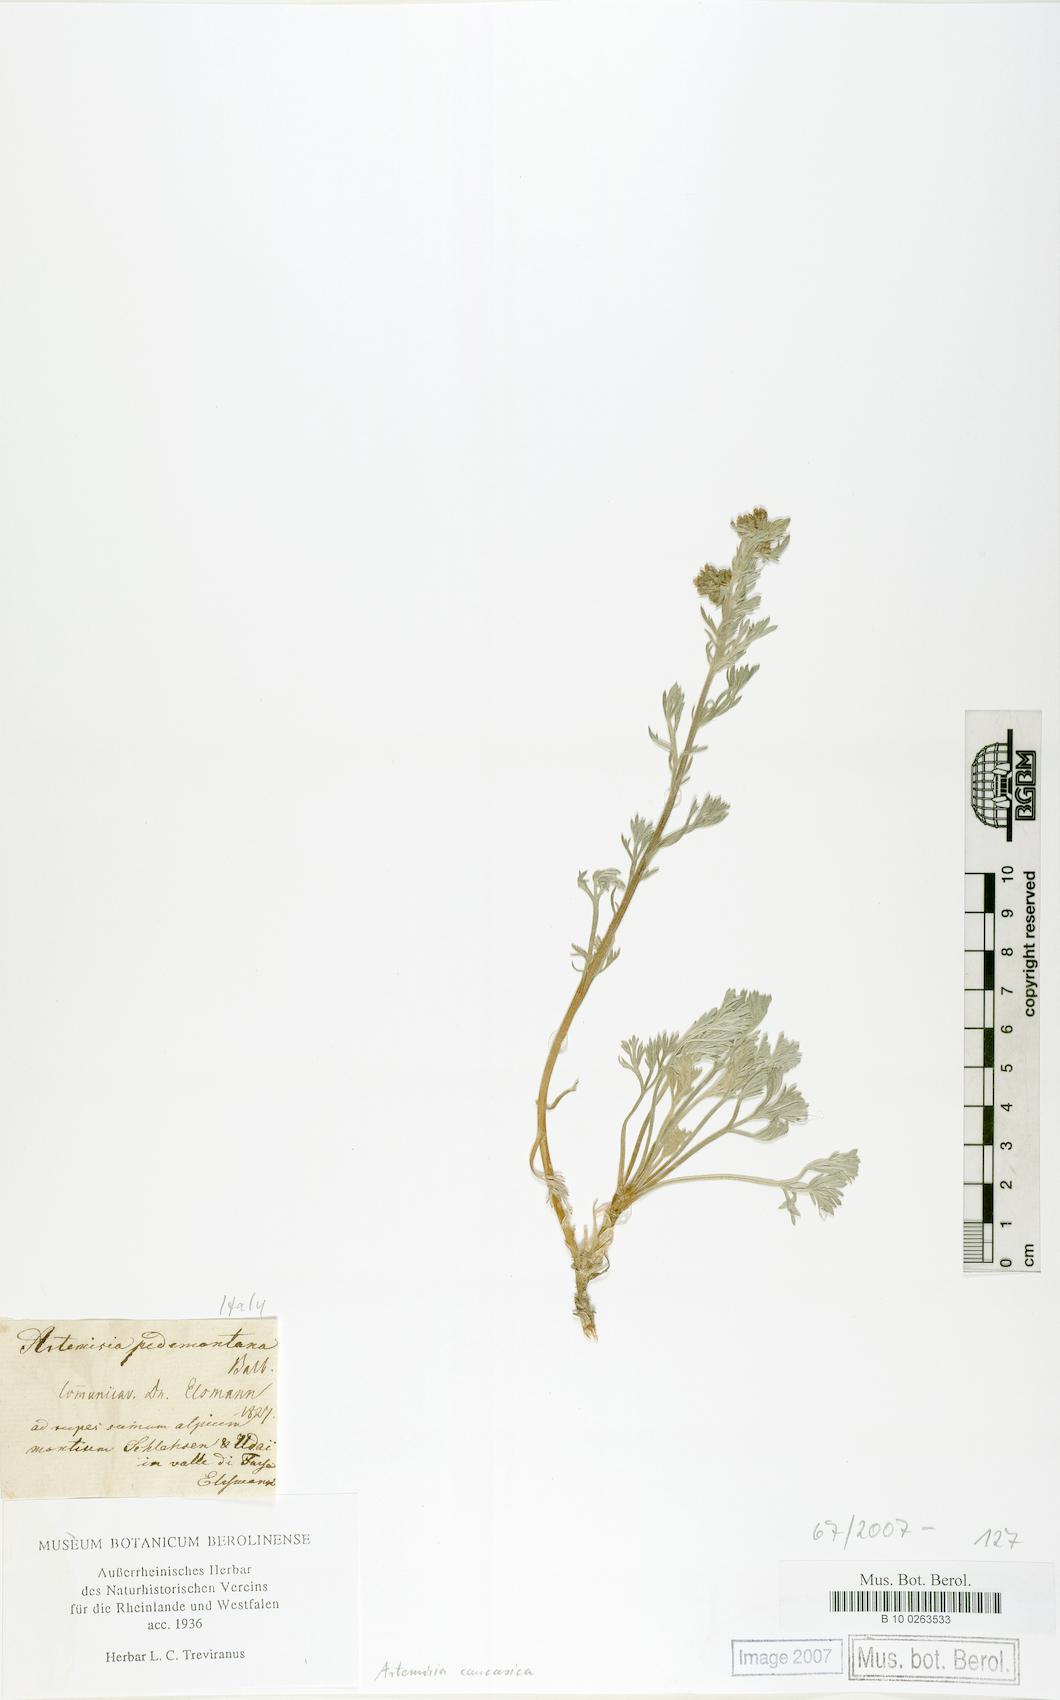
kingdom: Plantae
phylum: Tracheophyta
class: Magnoliopsida
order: Asterales
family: Asteraceae
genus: Artemisia
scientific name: Artemisia alpina
